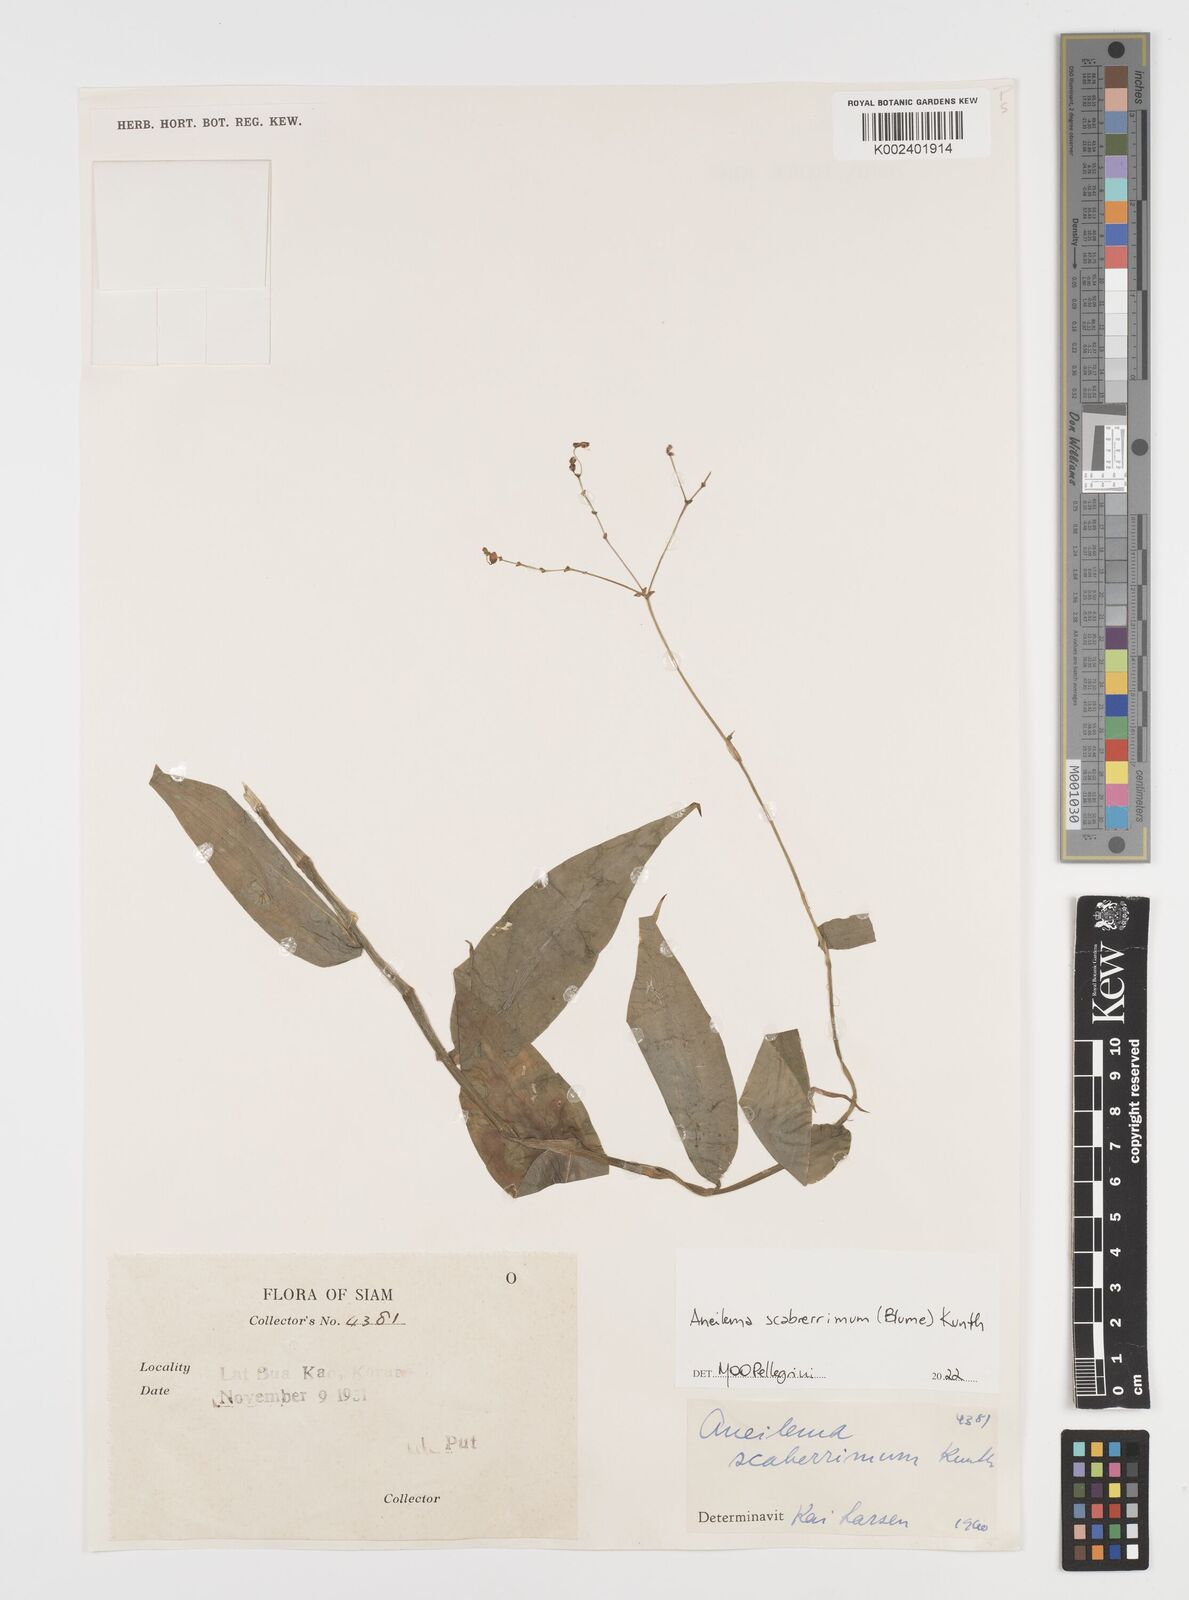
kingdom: Plantae
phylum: Tracheophyta
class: Liliopsida
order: Commelinales
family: Commelinaceae
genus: Rhopalephora
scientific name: Rhopalephora
